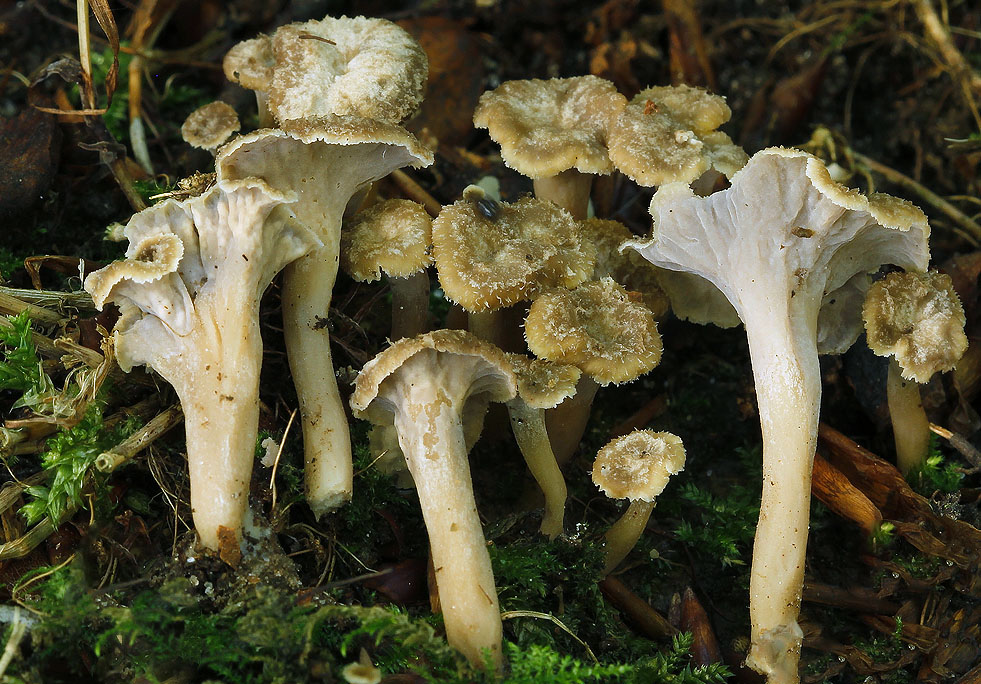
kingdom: Fungi
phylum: Basidiomycota
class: Agaricomycetes
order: Cantharellales
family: Hydnaceae
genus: Craterellus
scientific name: Craterellus undulatus
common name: liden kantarel
